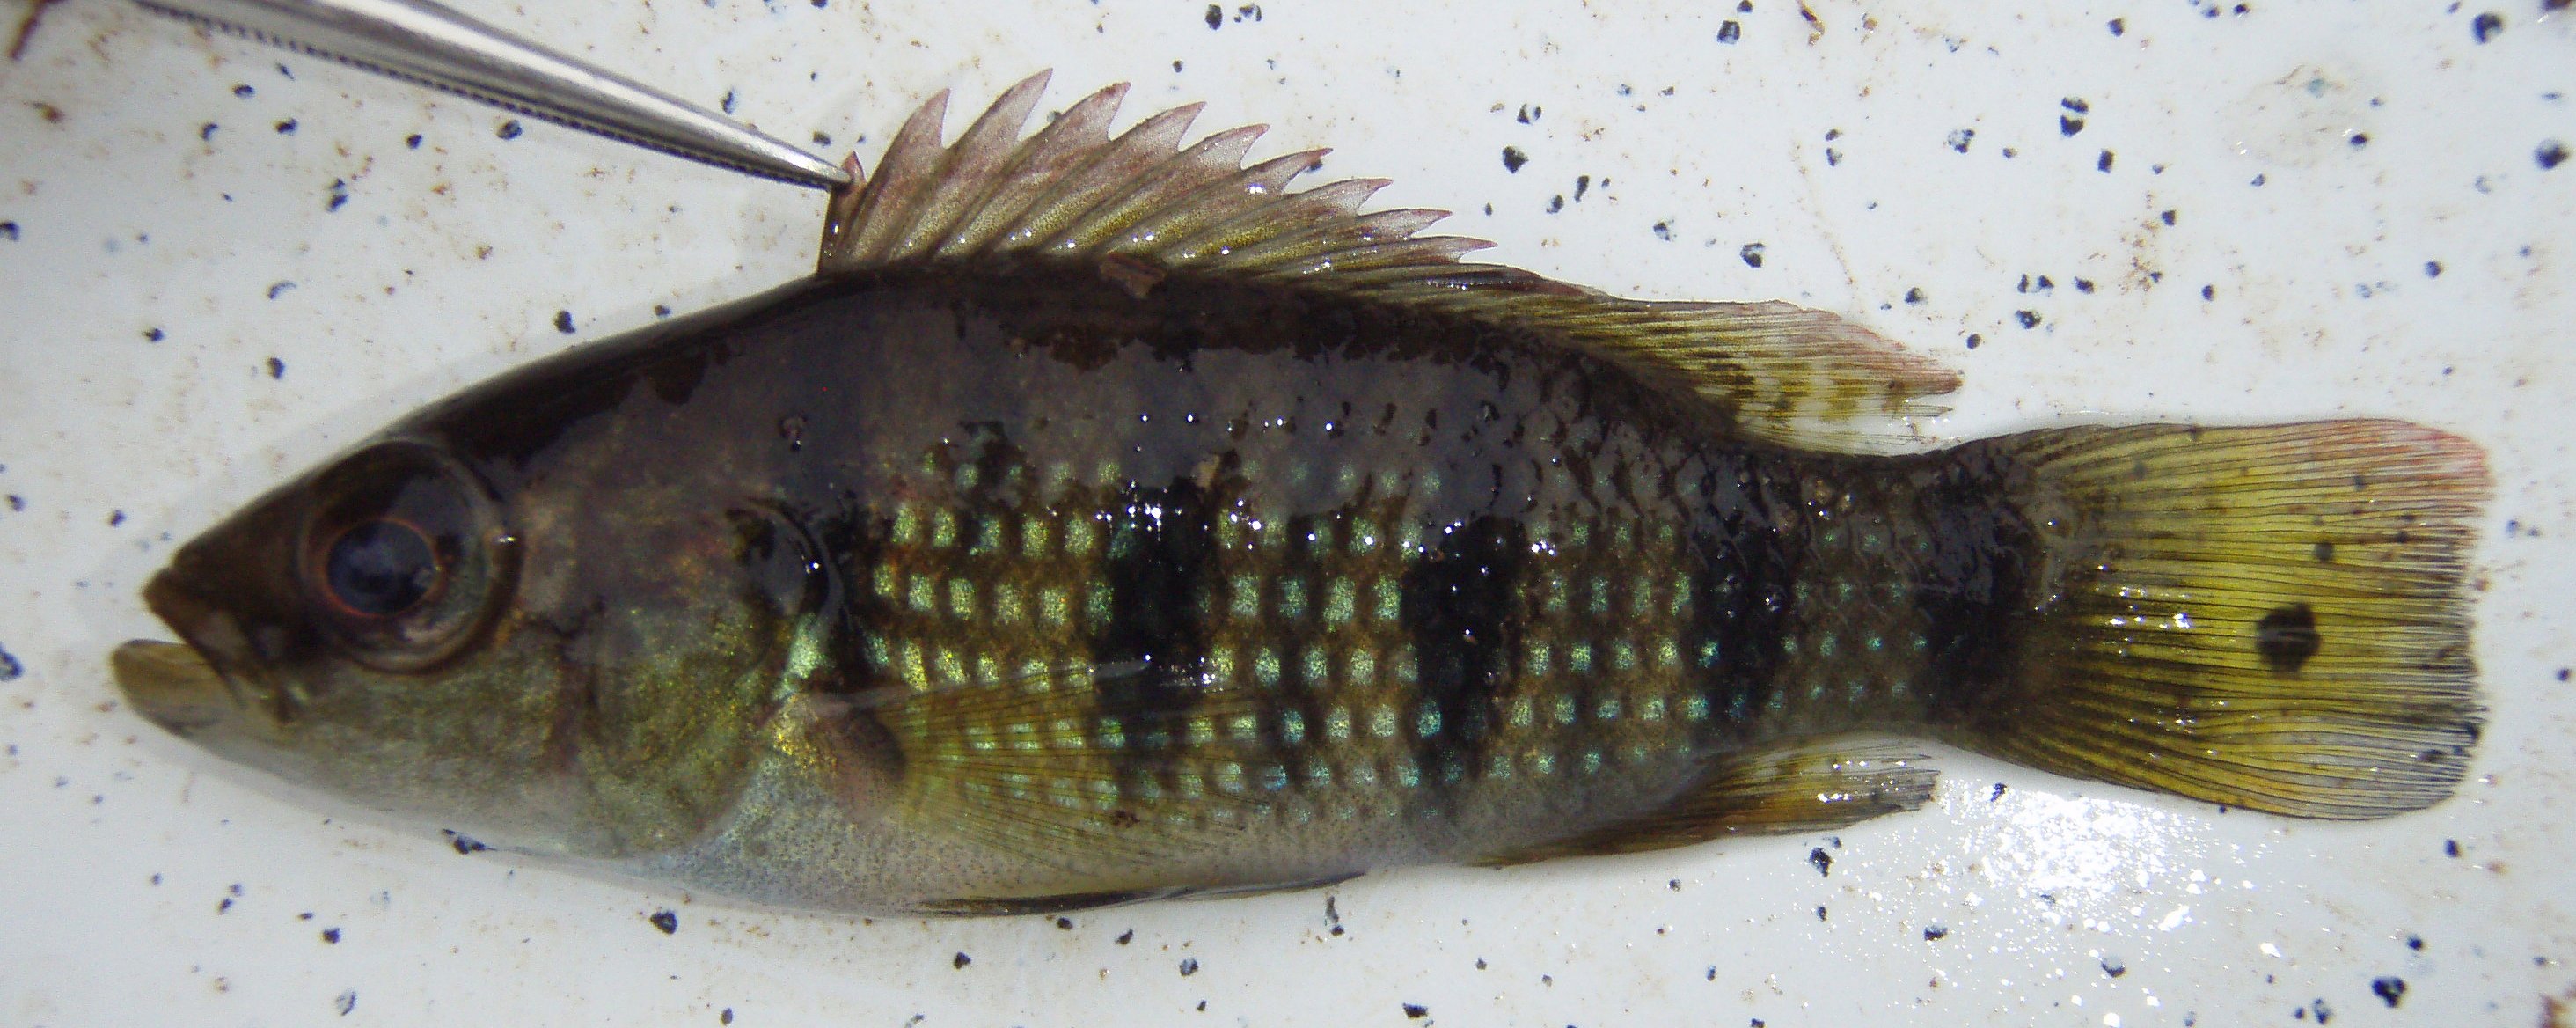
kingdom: Animalia
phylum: Chordata
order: Perciformes
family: Cichlidae
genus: Hemichromis
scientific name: Hemichromis fasciatus
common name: Banded jewelfish
